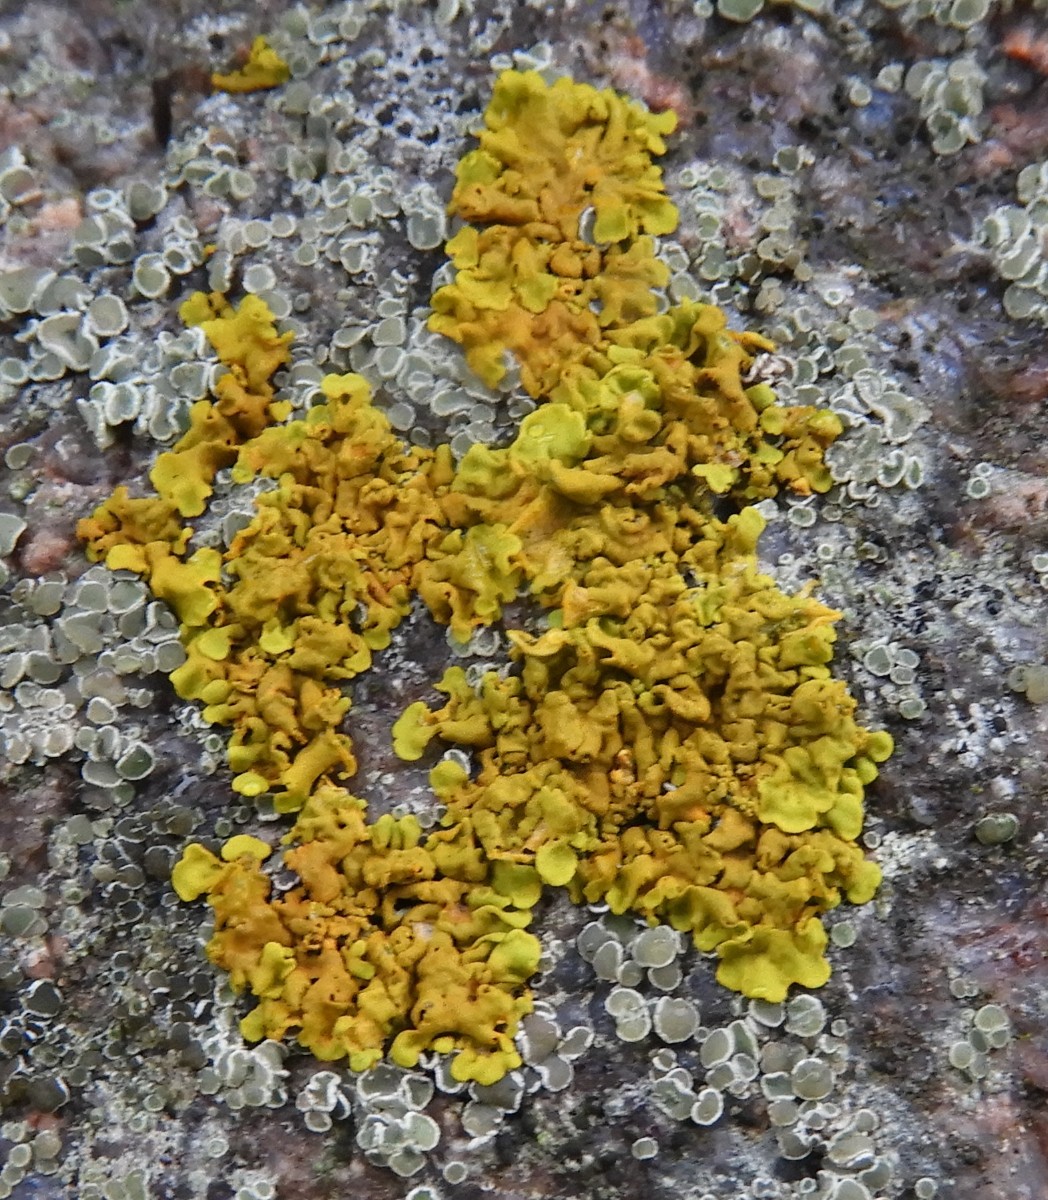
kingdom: Fungi
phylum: Ascomycota
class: Lecanoromycetes
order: Teloschistales
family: Teloschistaceae
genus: Xanthoria
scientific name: Xanthoria parietina
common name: almindelig væggelav
